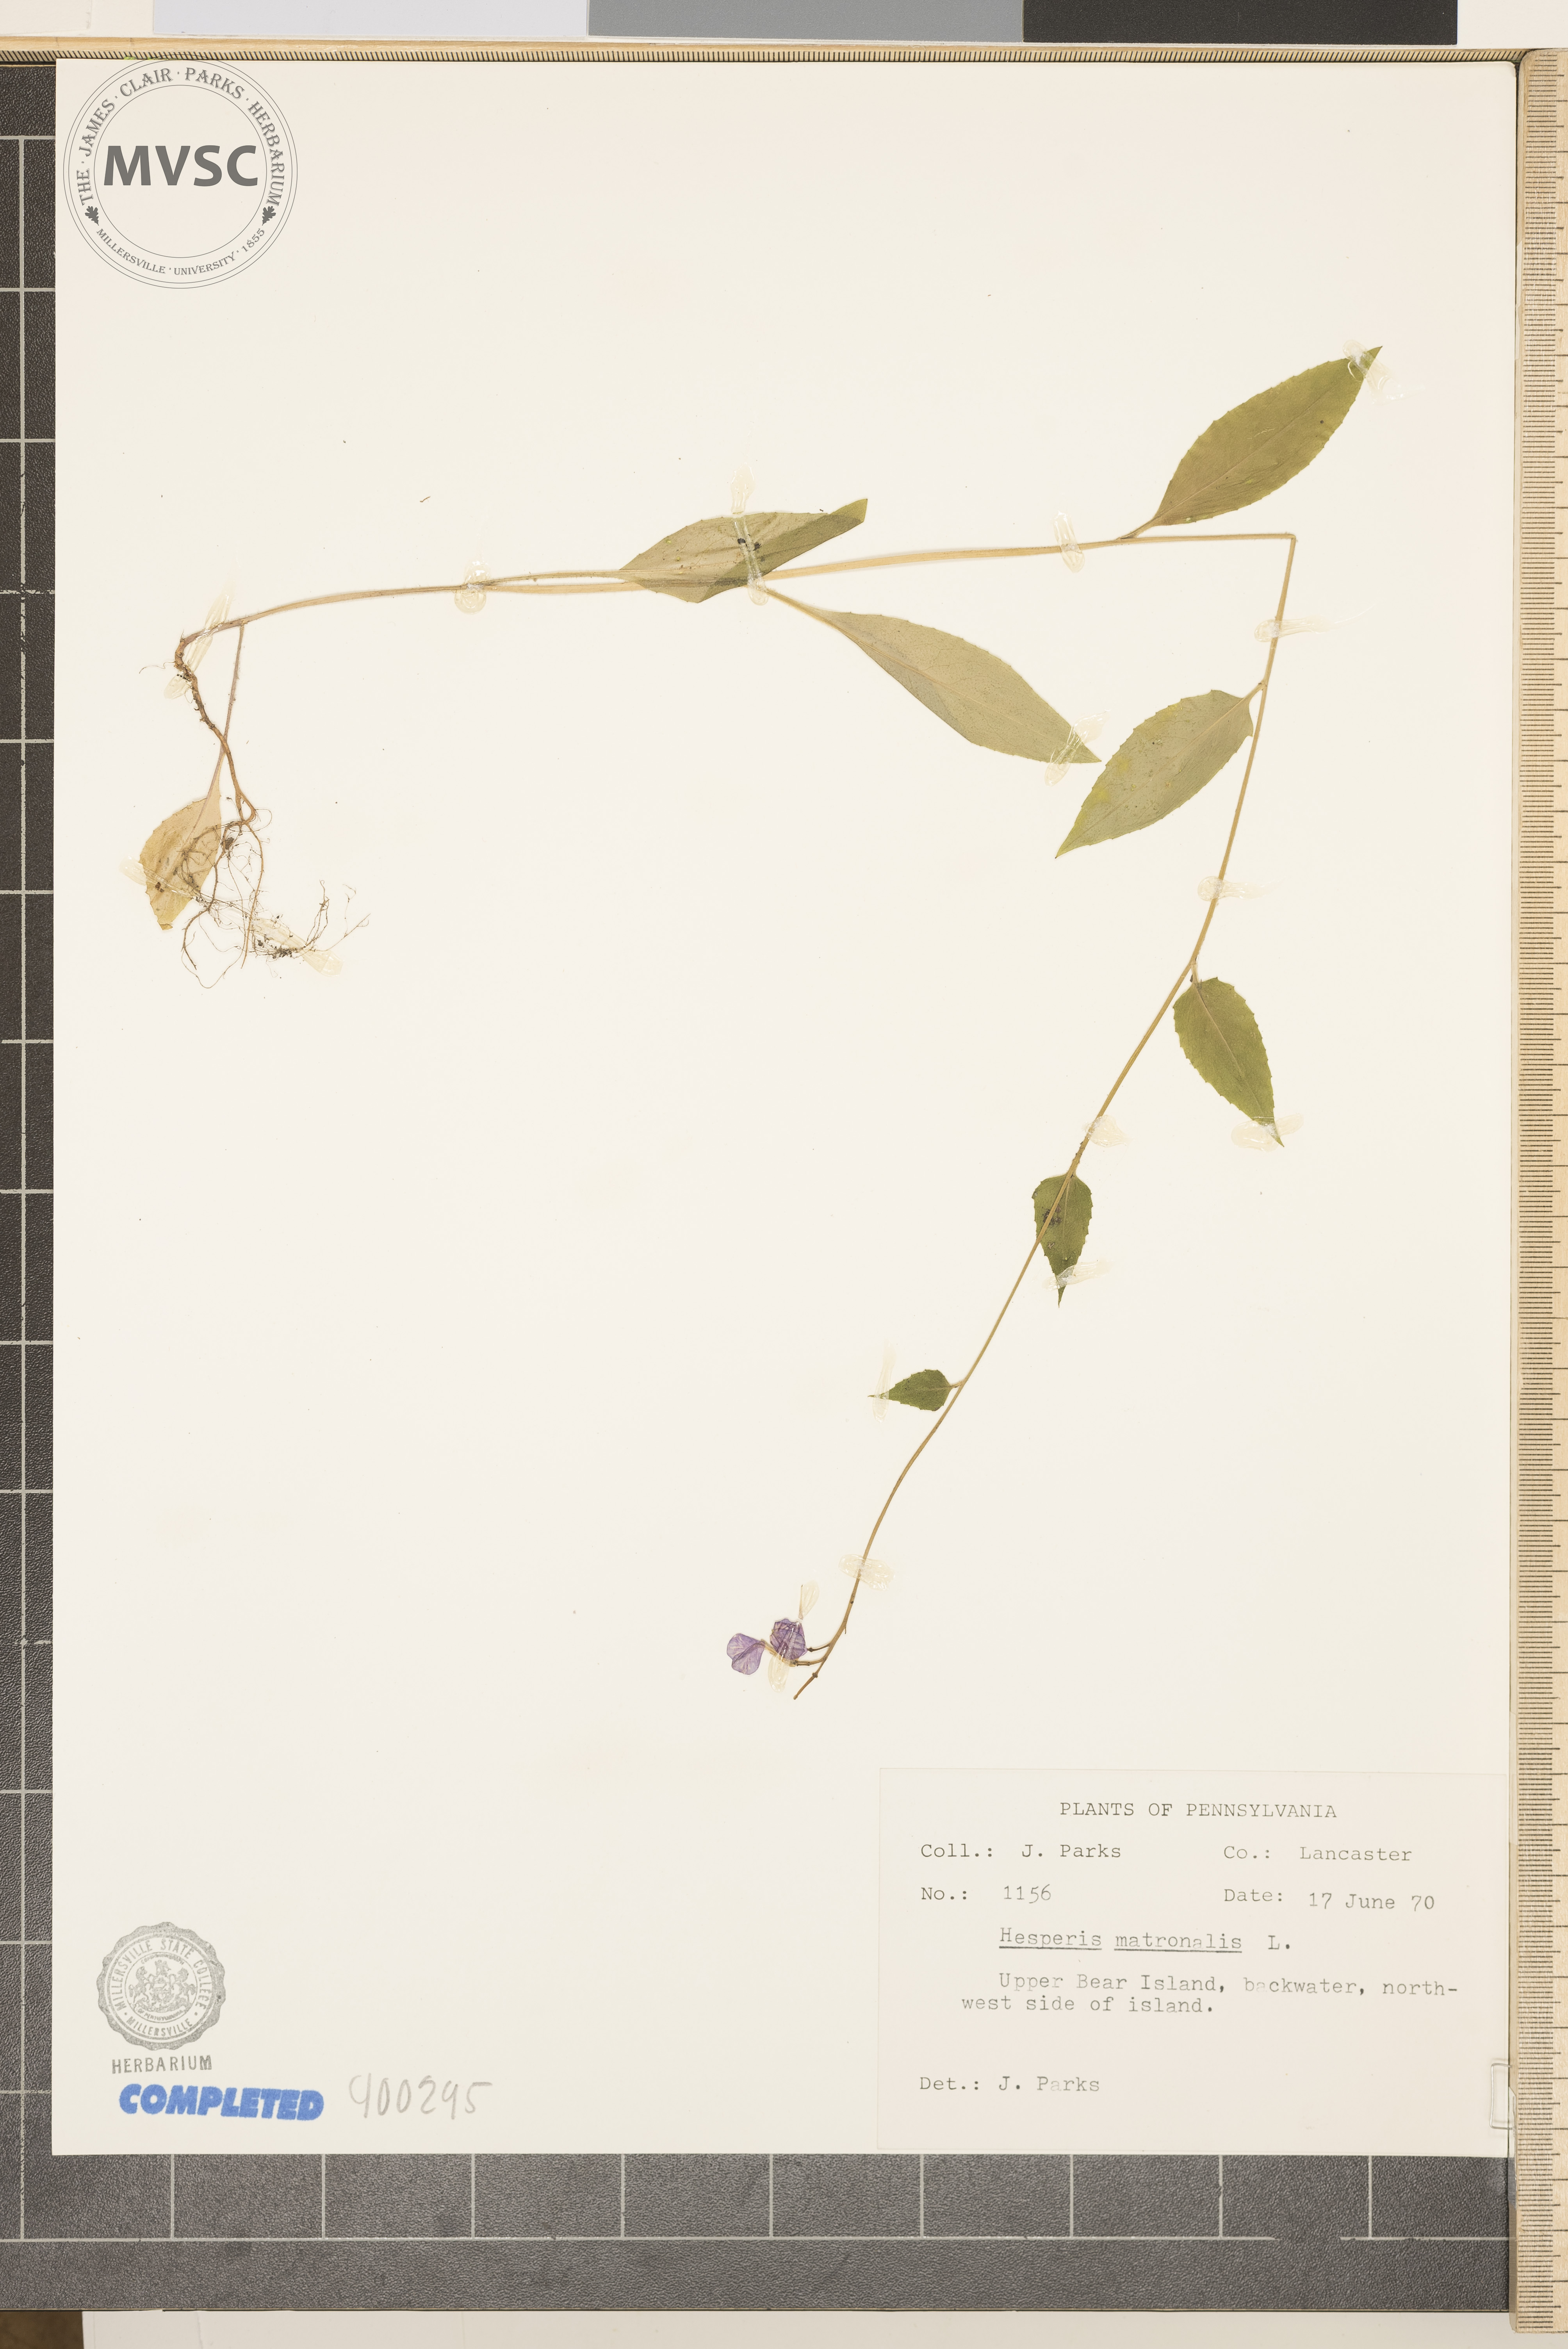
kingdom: Plantae
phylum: Tracheophyta
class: Magnoliopsida
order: Brassicales
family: Brassicaceae
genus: Hesperis
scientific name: Hesperis matronalis
